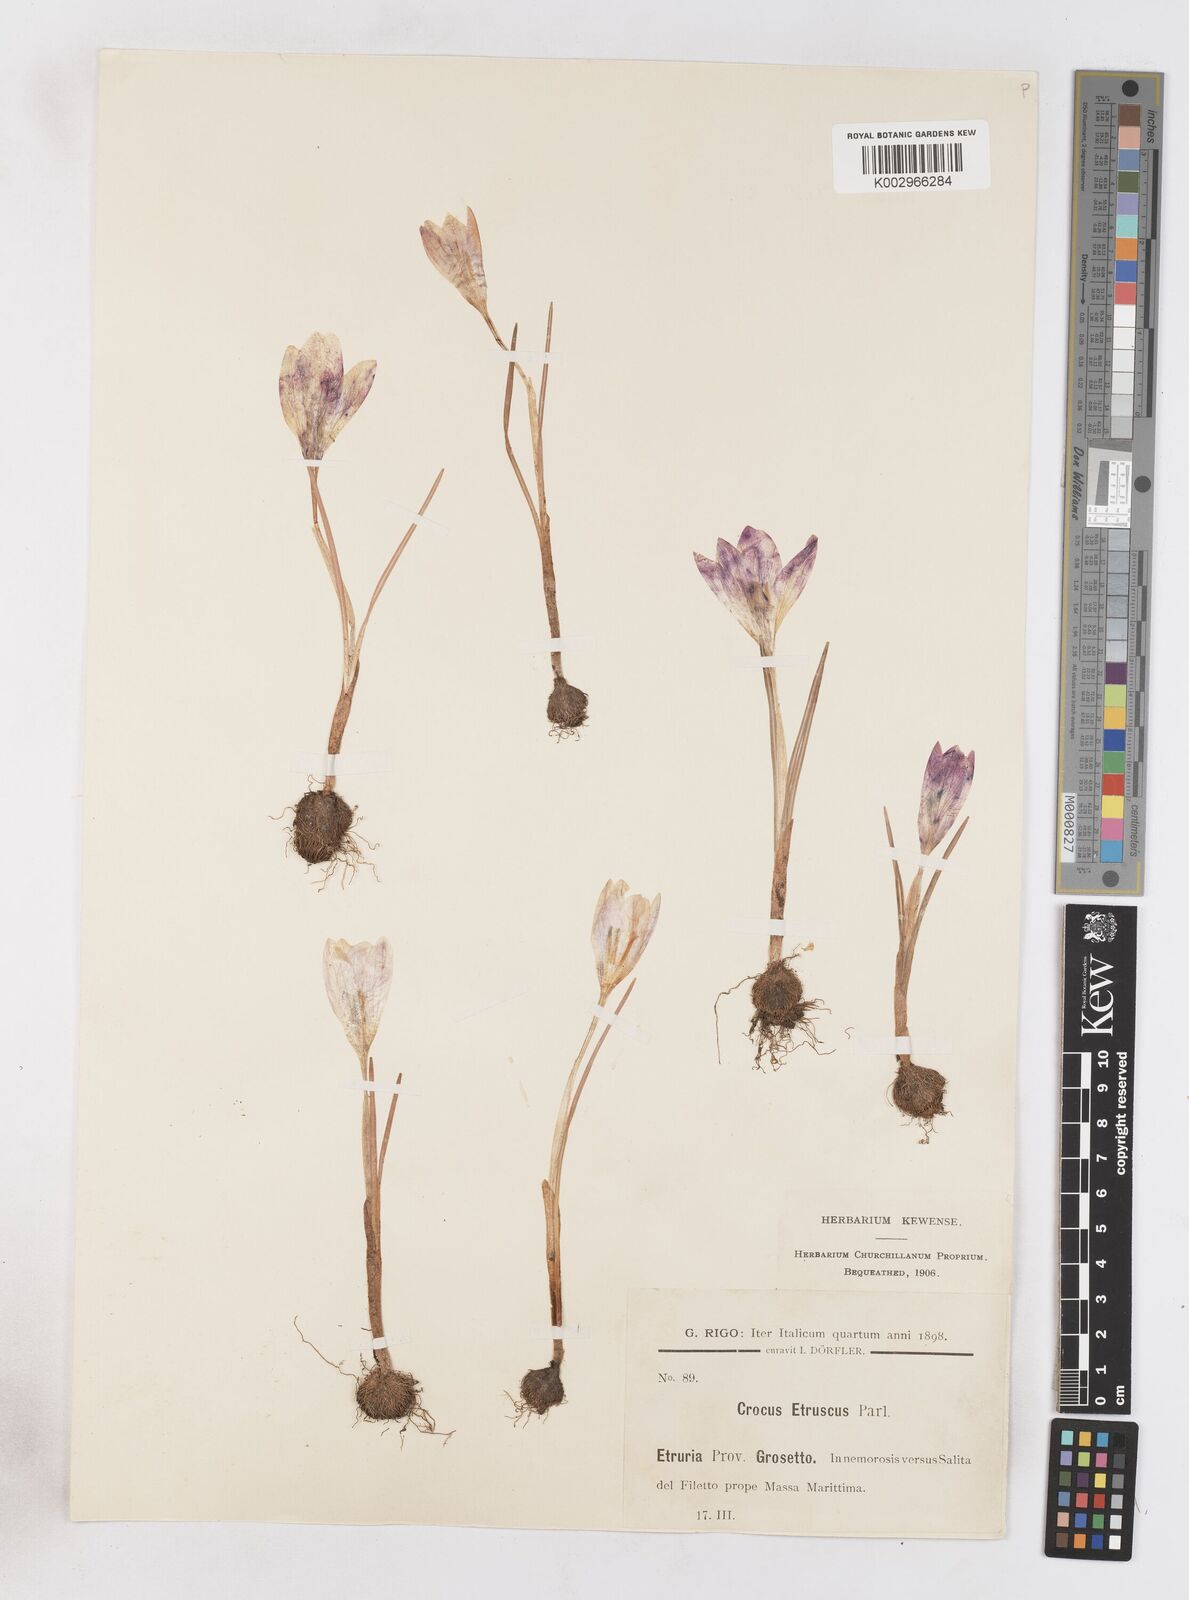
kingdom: Plantae
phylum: Tracheophyta
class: Liliopsida
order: Asparagales
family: Iridaceae
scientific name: Iridaceae
